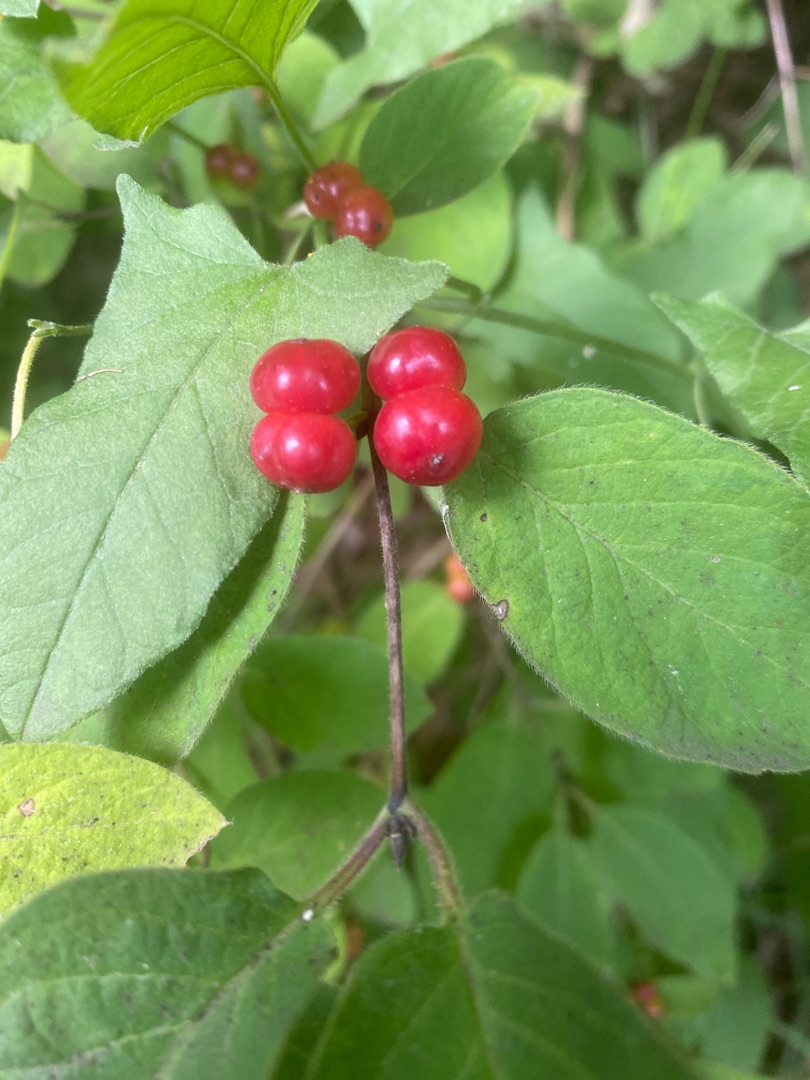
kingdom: Plantae
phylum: Tracheophyta
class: Magnoliopsida
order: Dipsacales
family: Caprifoliaceae
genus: Lonicera
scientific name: Lonicera xylosteum
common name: Dunet gedeblad
